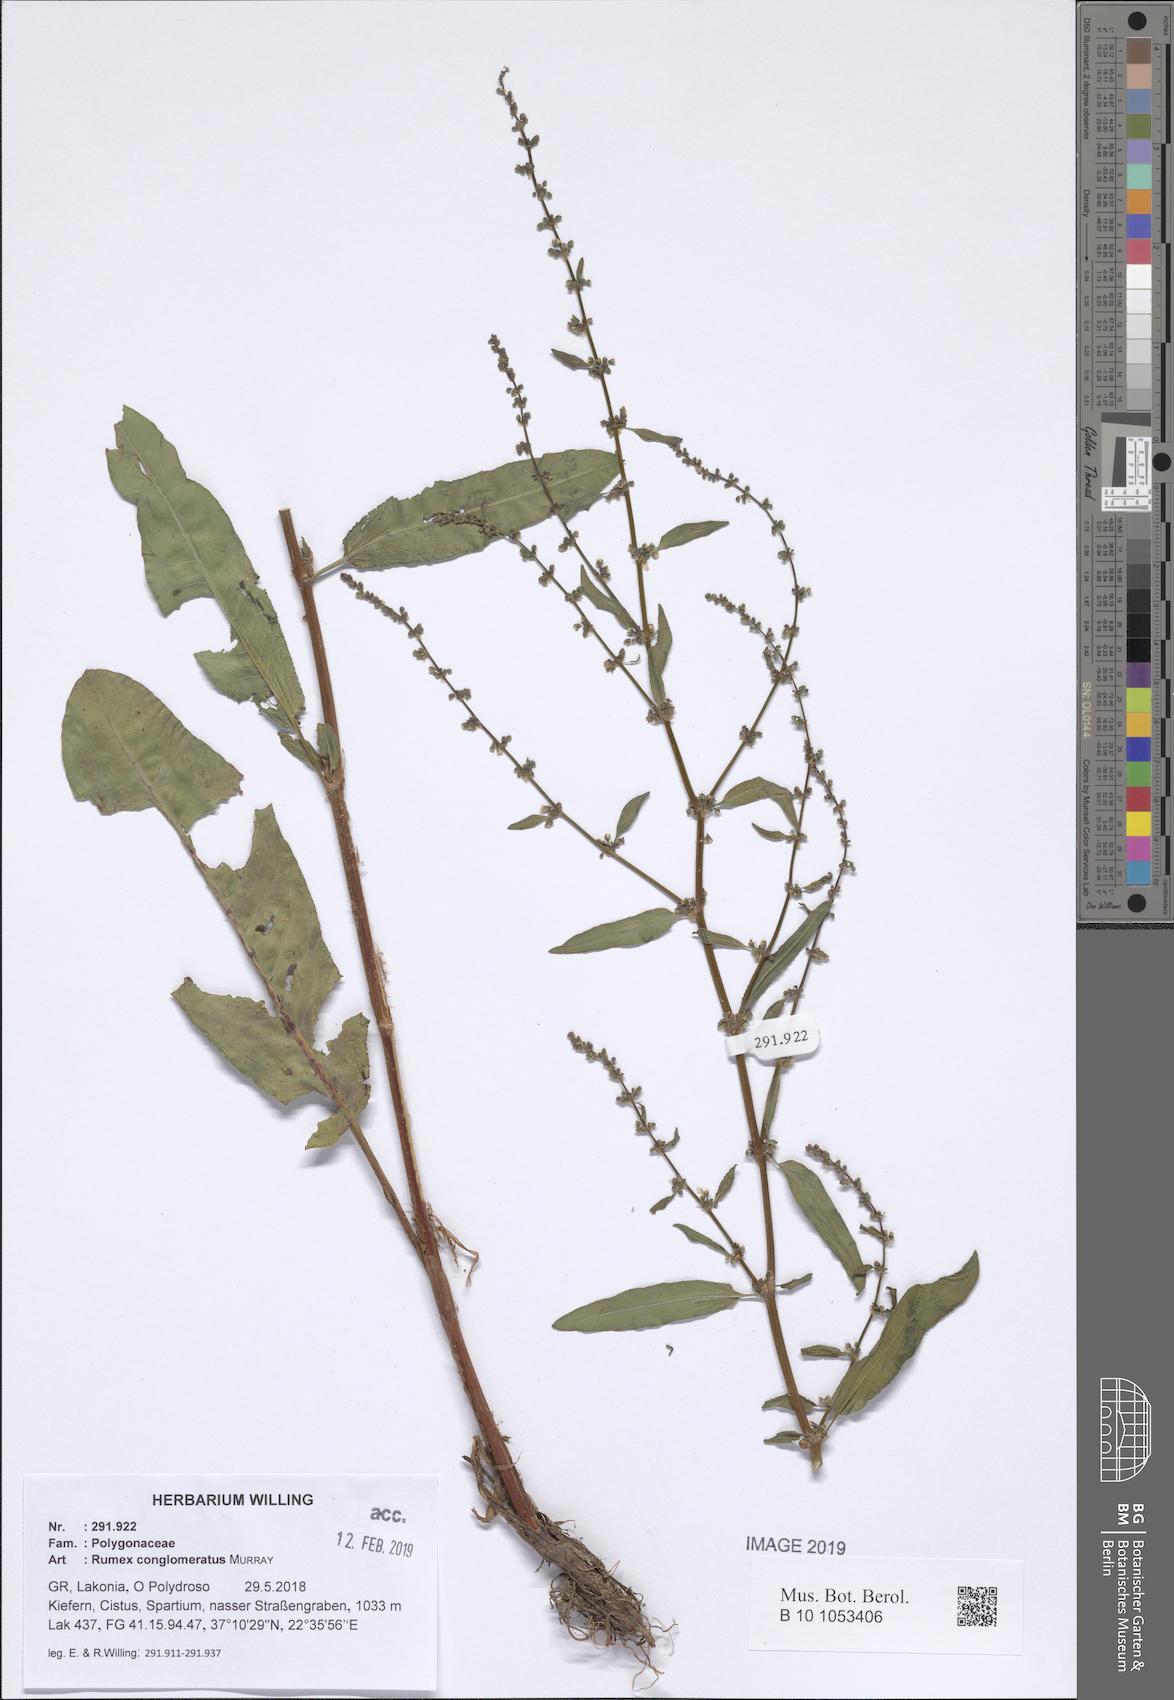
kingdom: Plantae
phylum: Tracheophyta
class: Magnoliopsida
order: Caryophyllales
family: Polygonaceae
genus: Rumex
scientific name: Rumex conglomeratus
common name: Clustered dock
